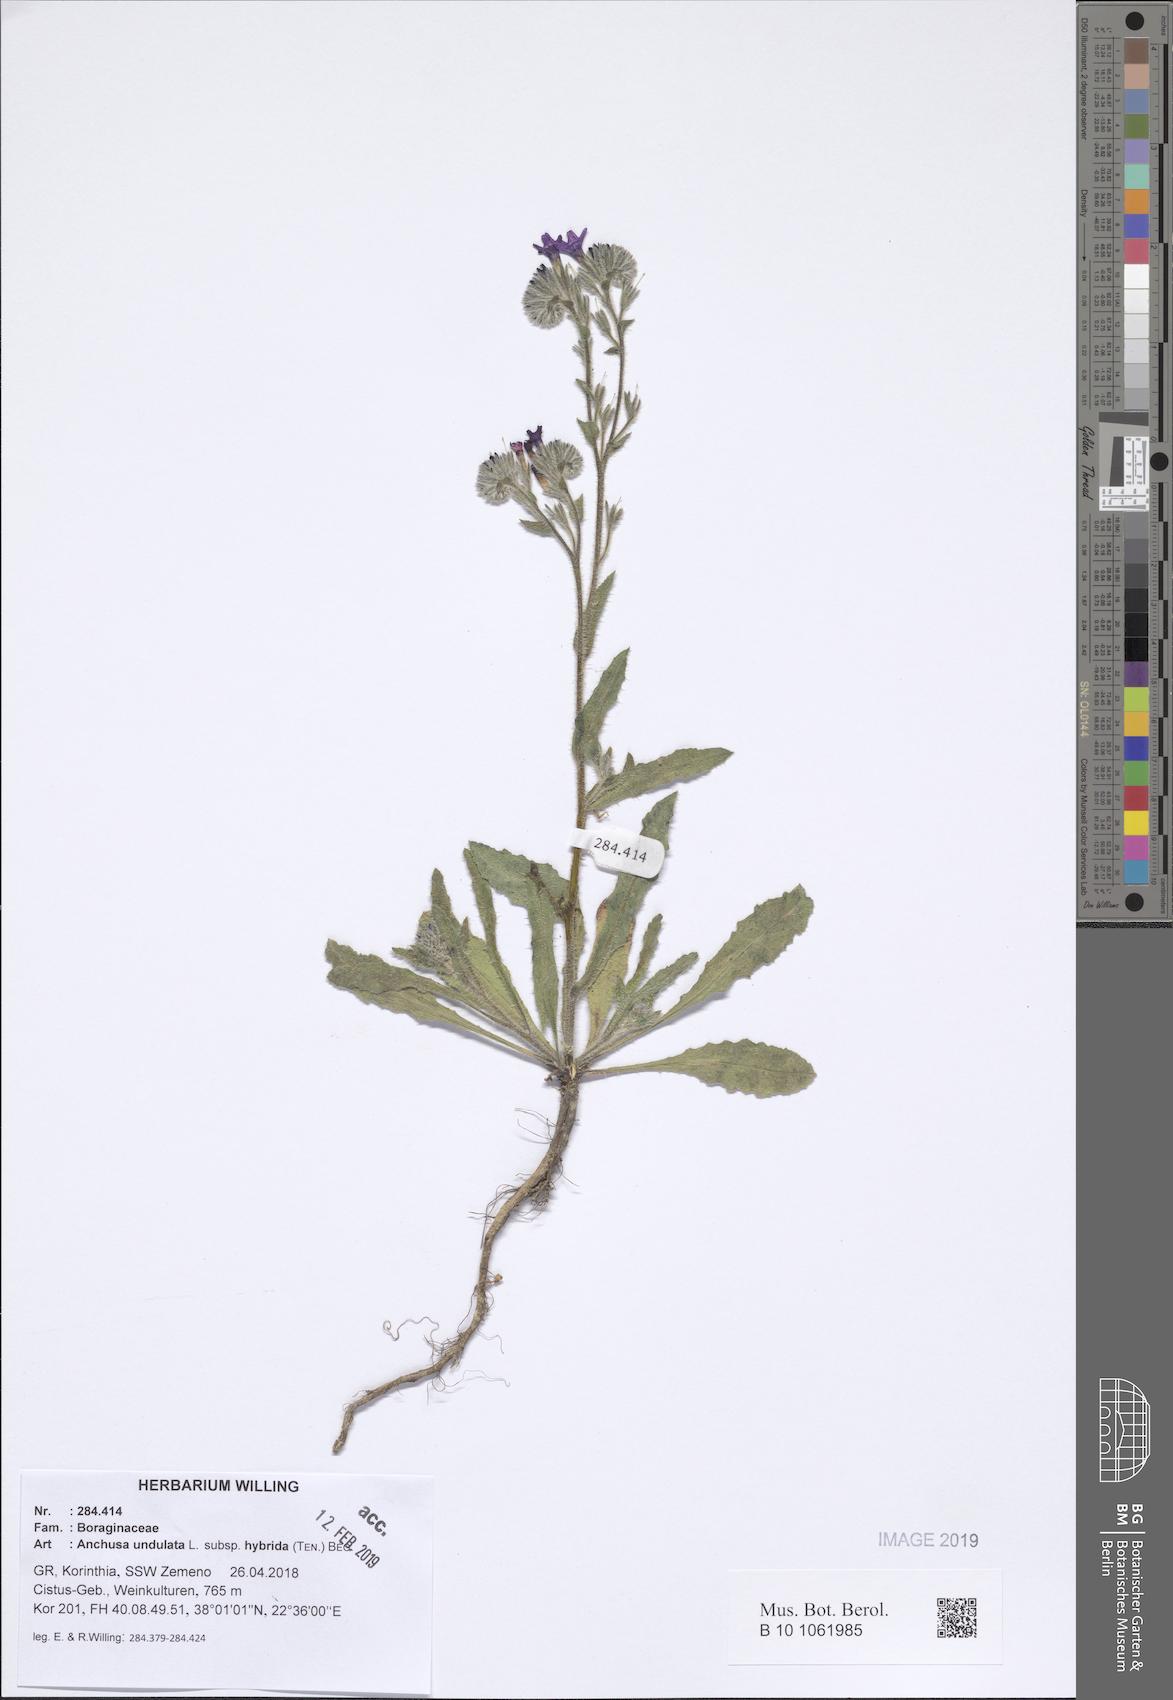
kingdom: Plantae
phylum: Tracheophyta
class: Magnoliopsida
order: Boraginales
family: Boraginaceae
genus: Anchusa
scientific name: Anchusa undulata
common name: Undulate alkanet
